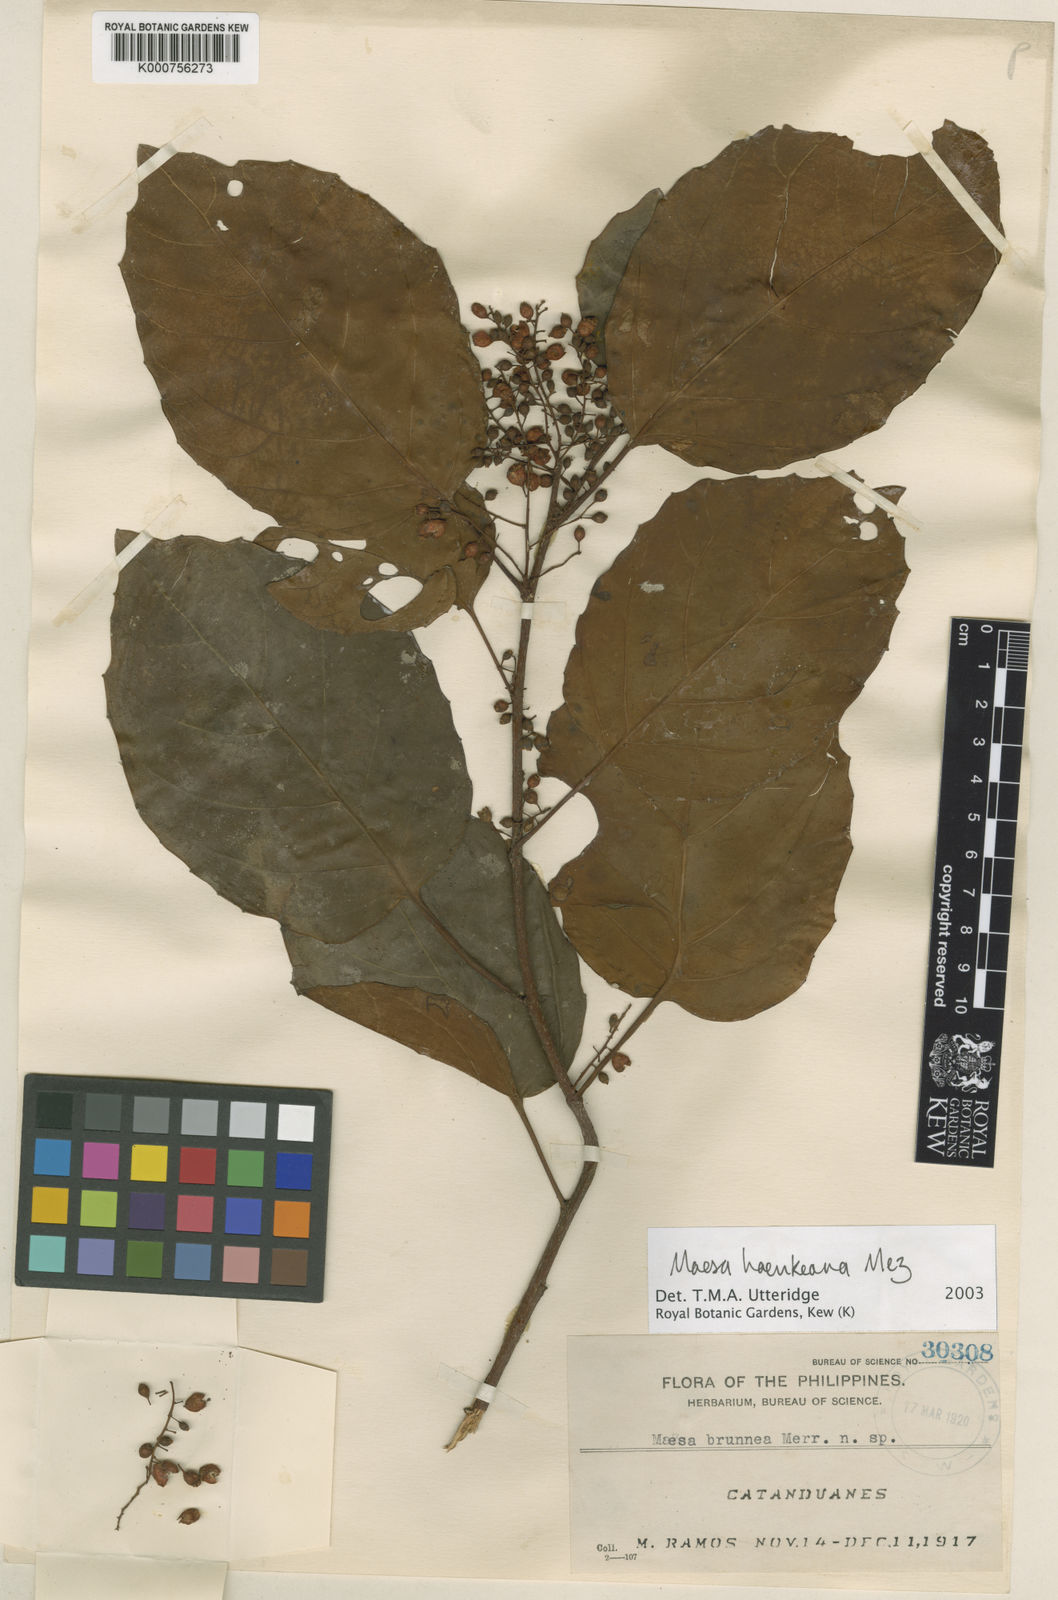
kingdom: Plantae
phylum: Tracheophyta
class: Magnoliopsida
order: Ericales
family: Primulaceae
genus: Maesa
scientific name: Maesa haenkeana
